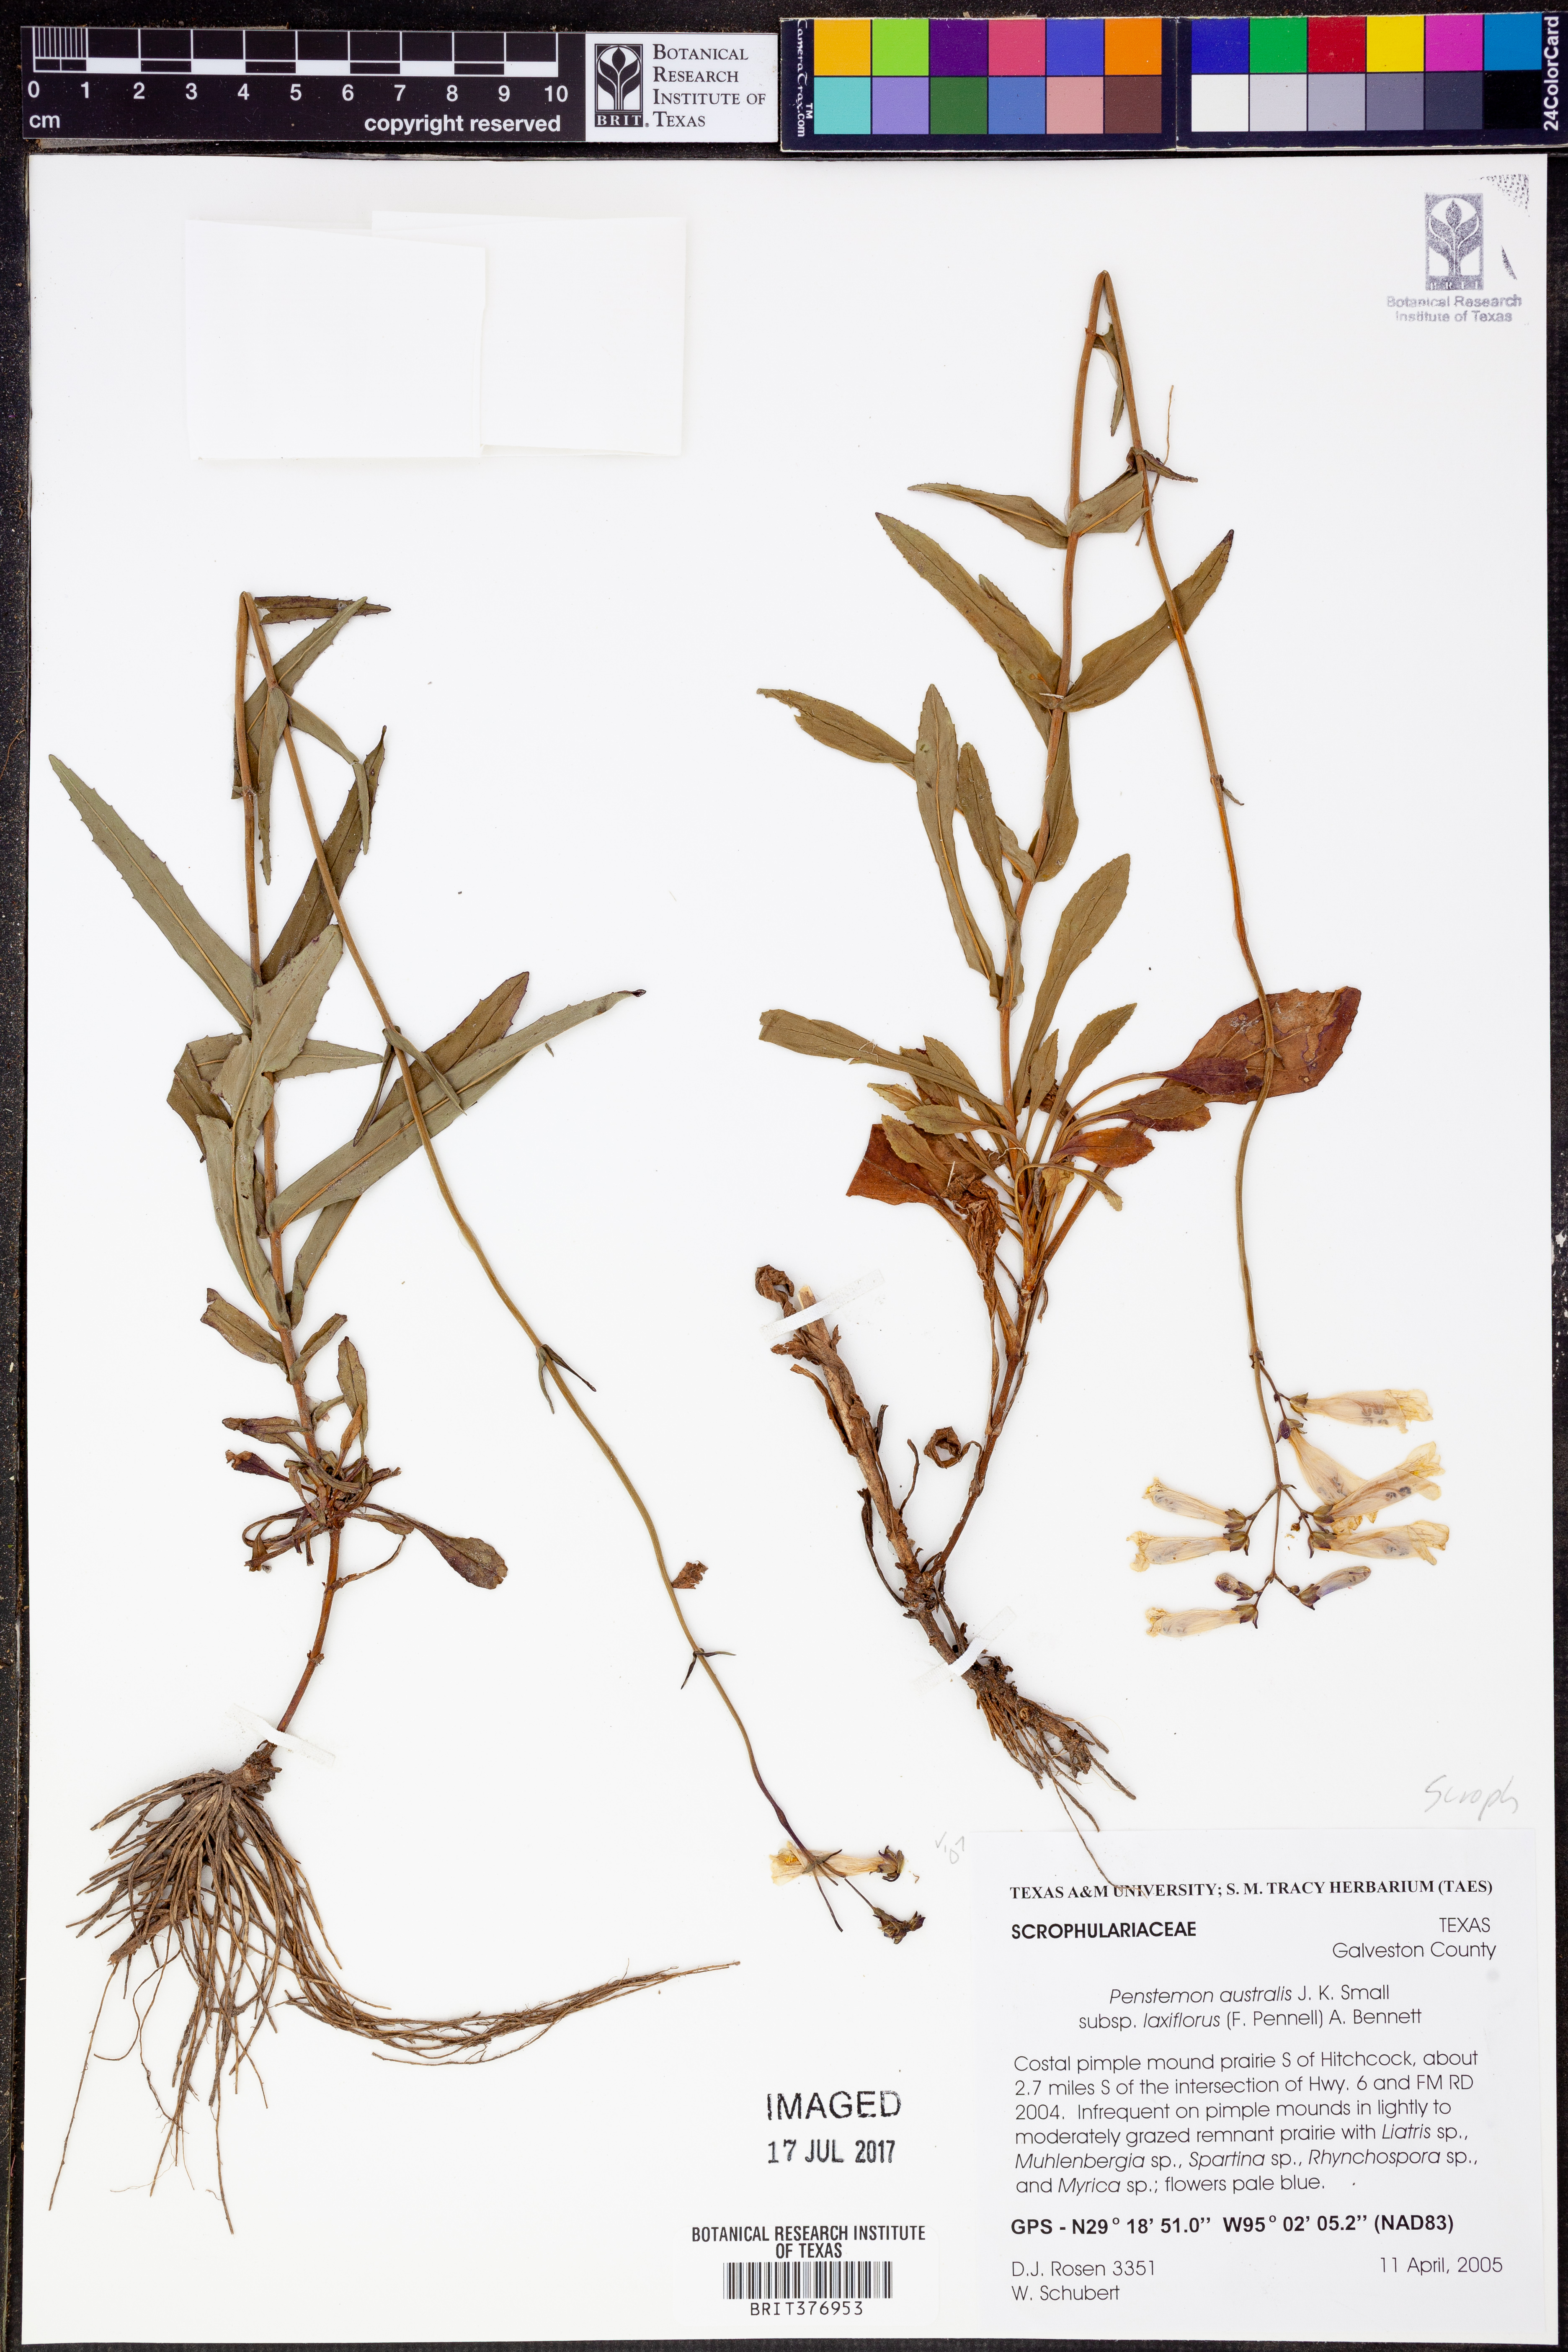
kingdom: Plantae
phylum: Tracheophyta
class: Magnoliopsida
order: Lamiales
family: Plantaginaceae
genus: Penstemon
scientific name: Penstemon laxiflorus
